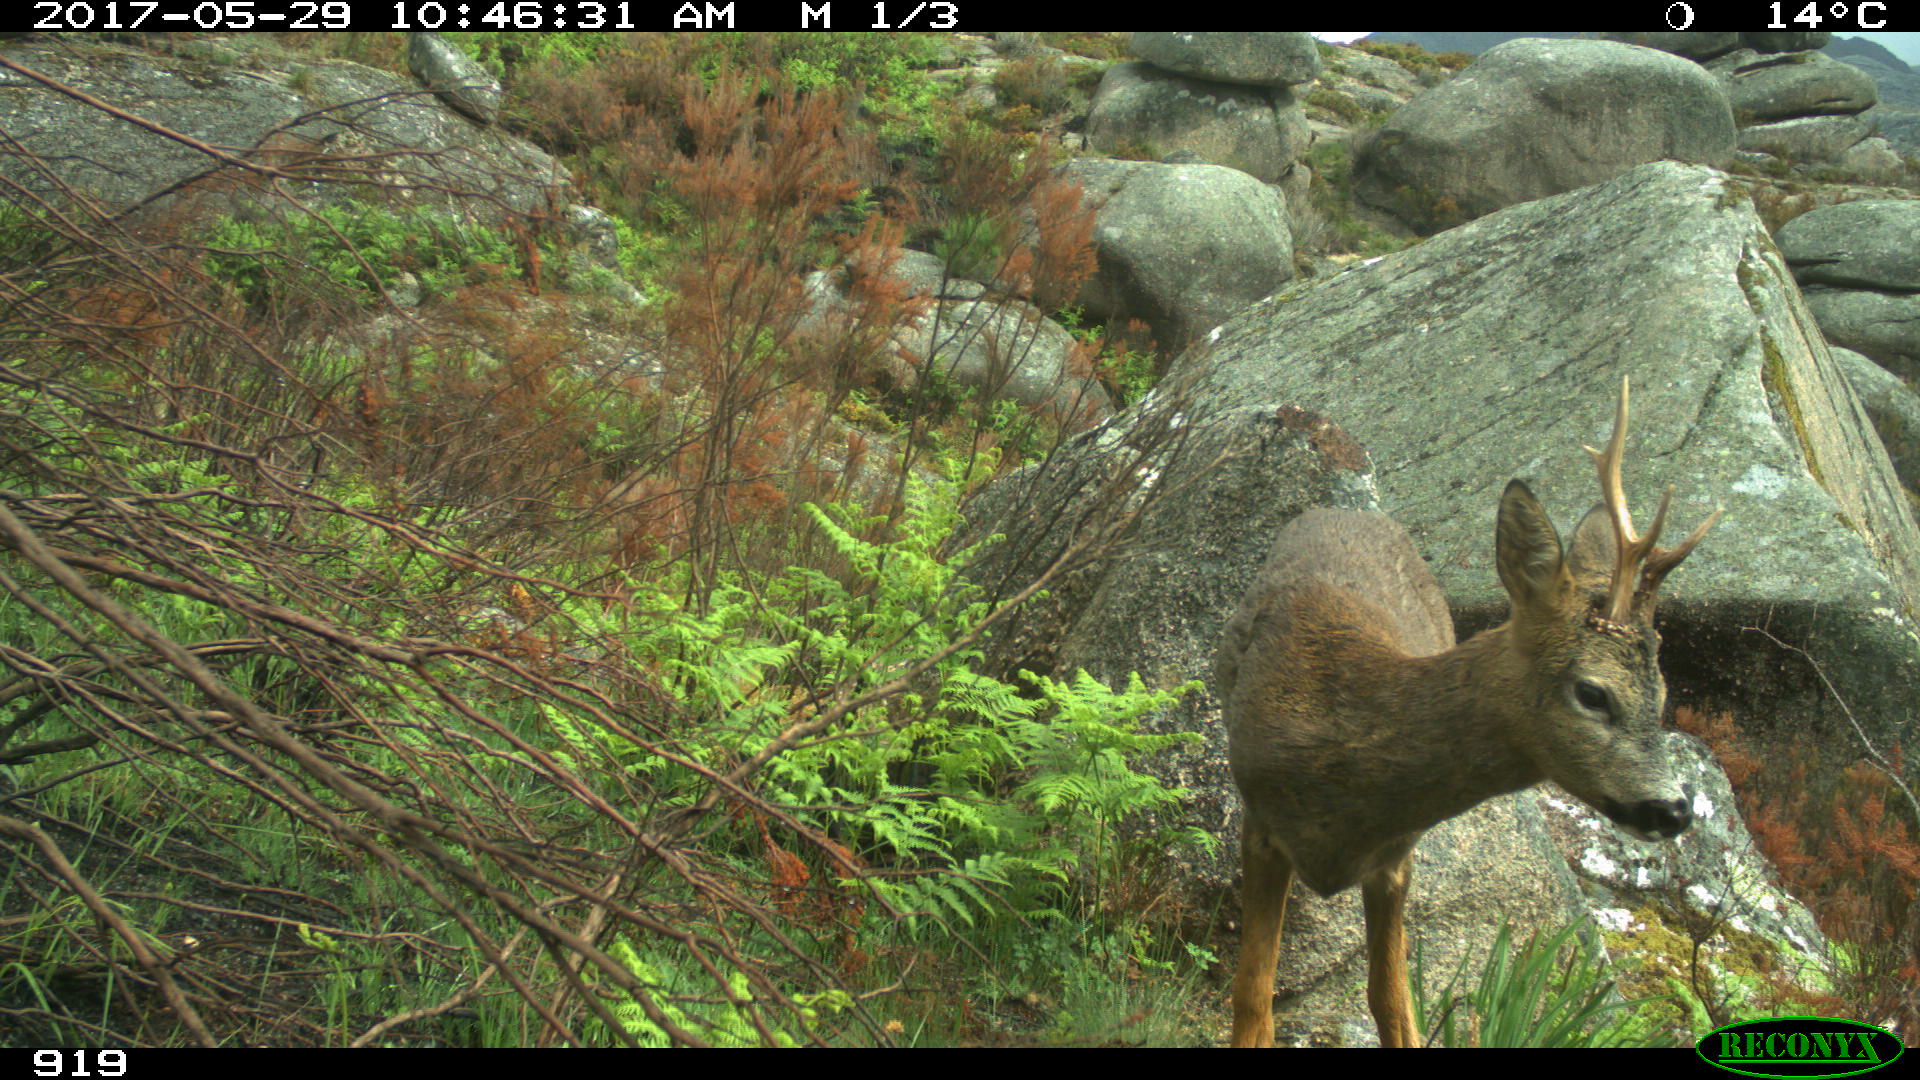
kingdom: Animalia
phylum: Chordata
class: Mammalia
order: Artiodactyla
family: Cervidae
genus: Capreolus
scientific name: Capreolus capreolus
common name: Western roe deer
